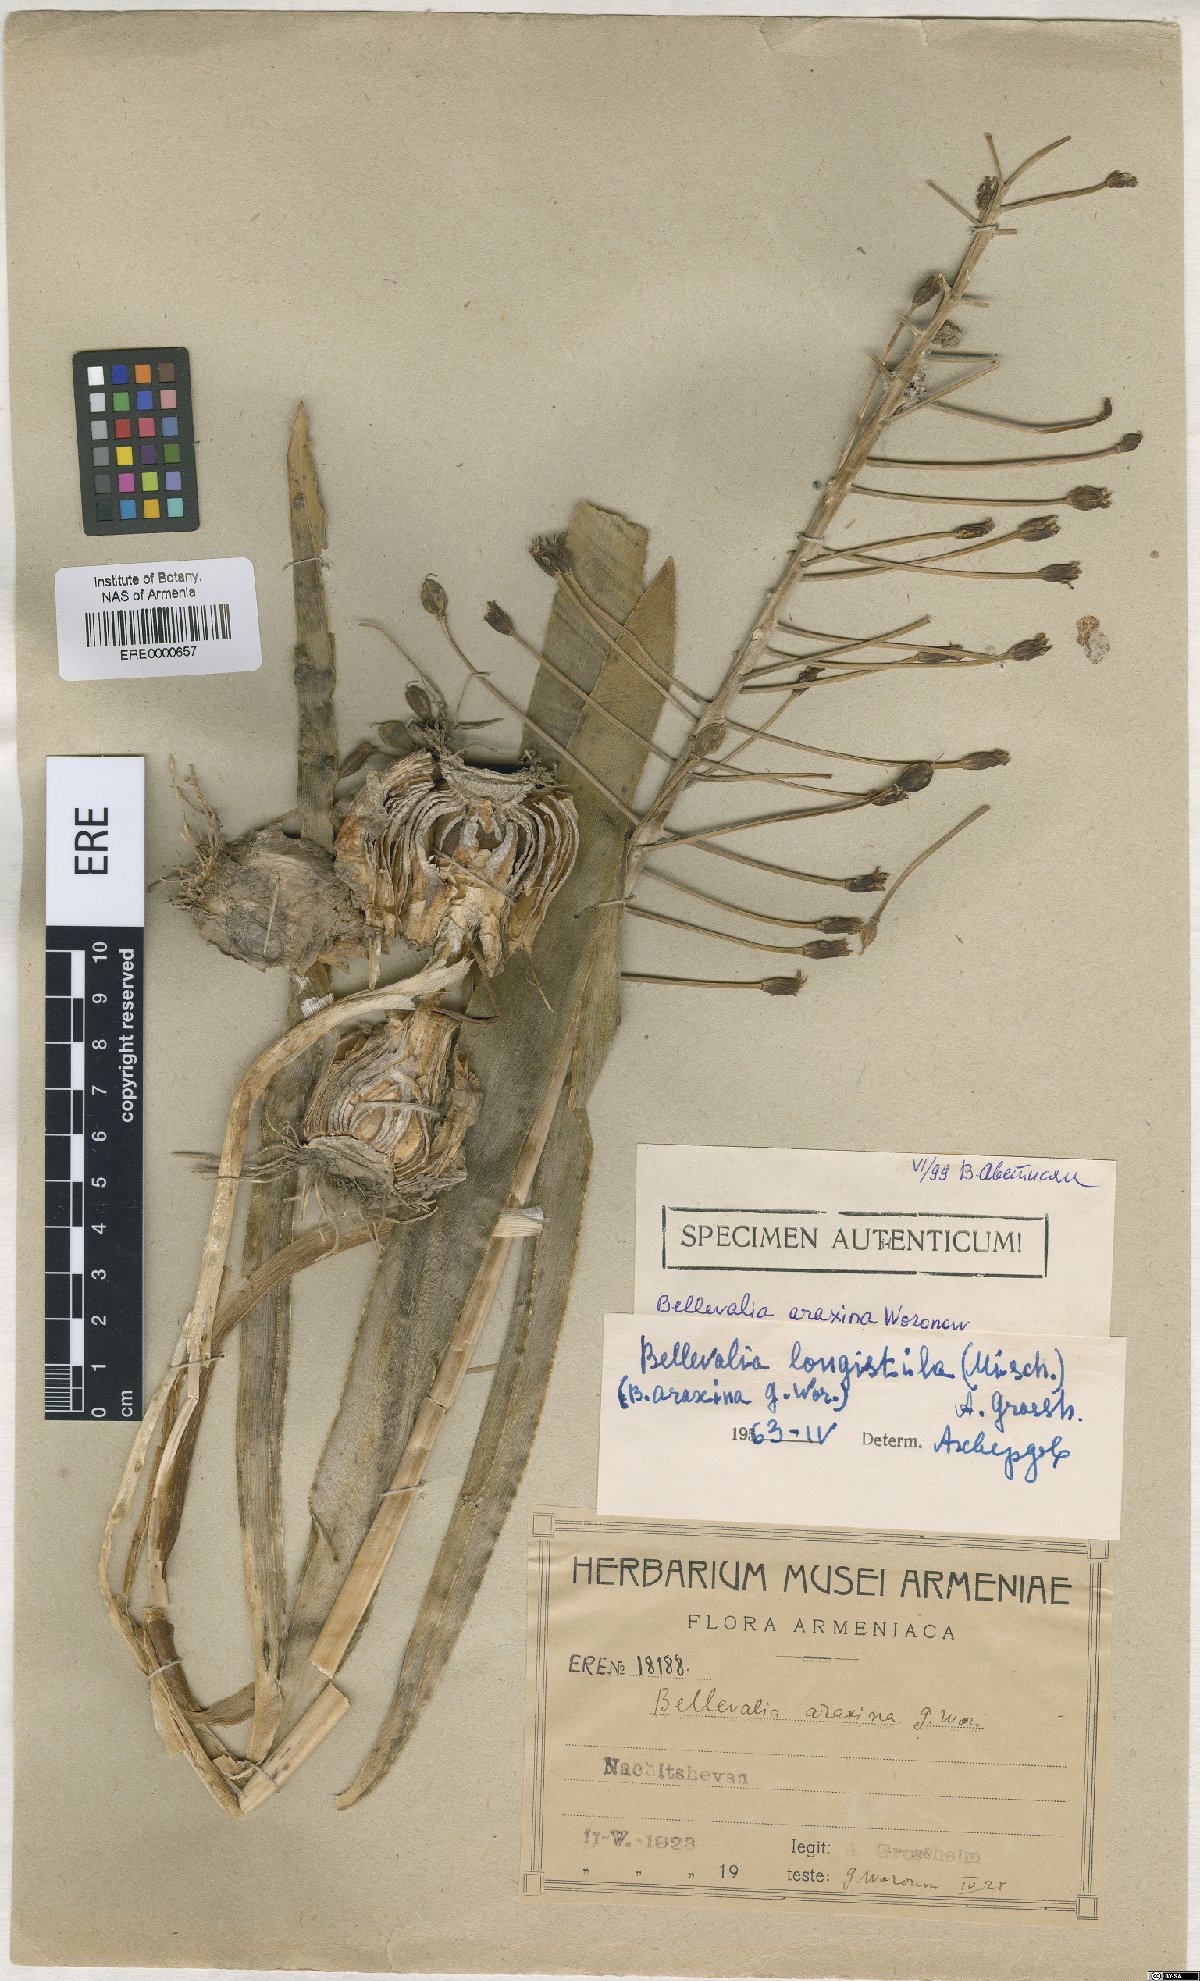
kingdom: Plantae
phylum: Tracheophyta
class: Liliopsida
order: Asparagales
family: Asparagaceae
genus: Bellevalia
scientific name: Bellevalia longistyla
